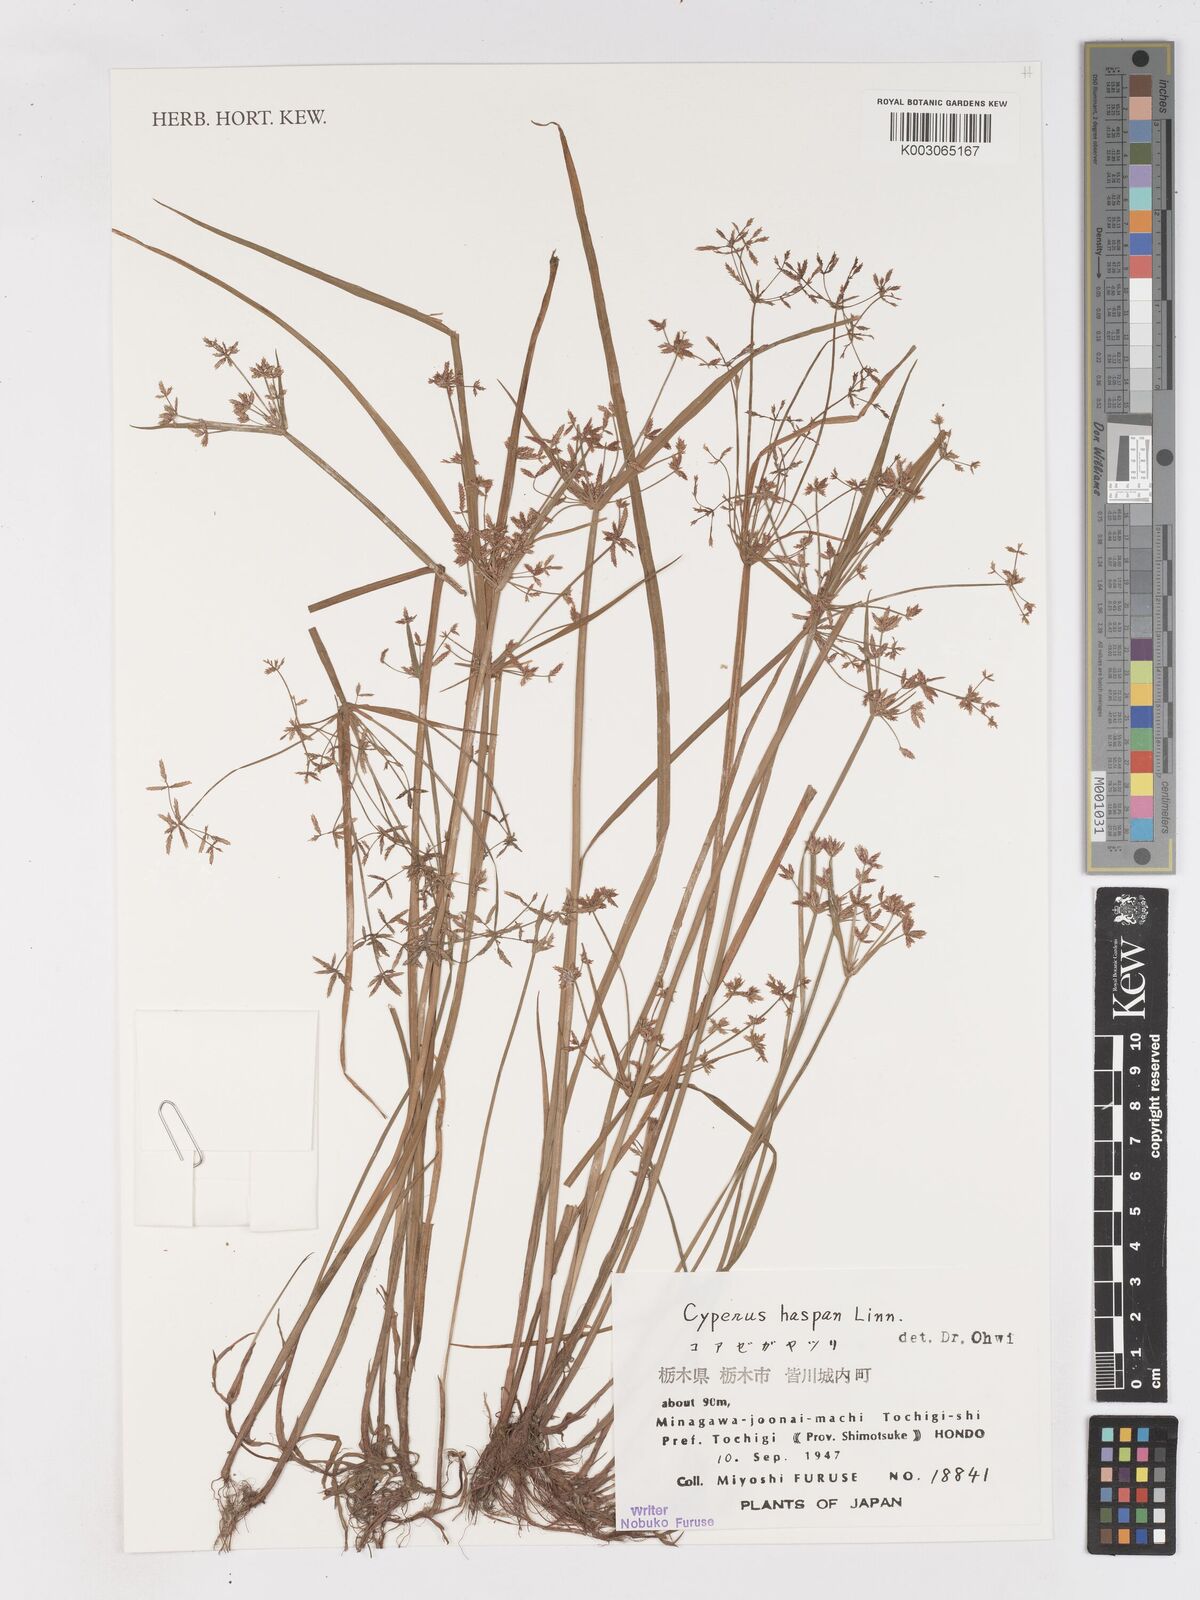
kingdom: Plantae
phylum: Tracheophyta
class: Liliopsida
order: Poales
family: Cyperaceae
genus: Cyperus
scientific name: Cyperus haspan
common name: Haspan flatsedge
